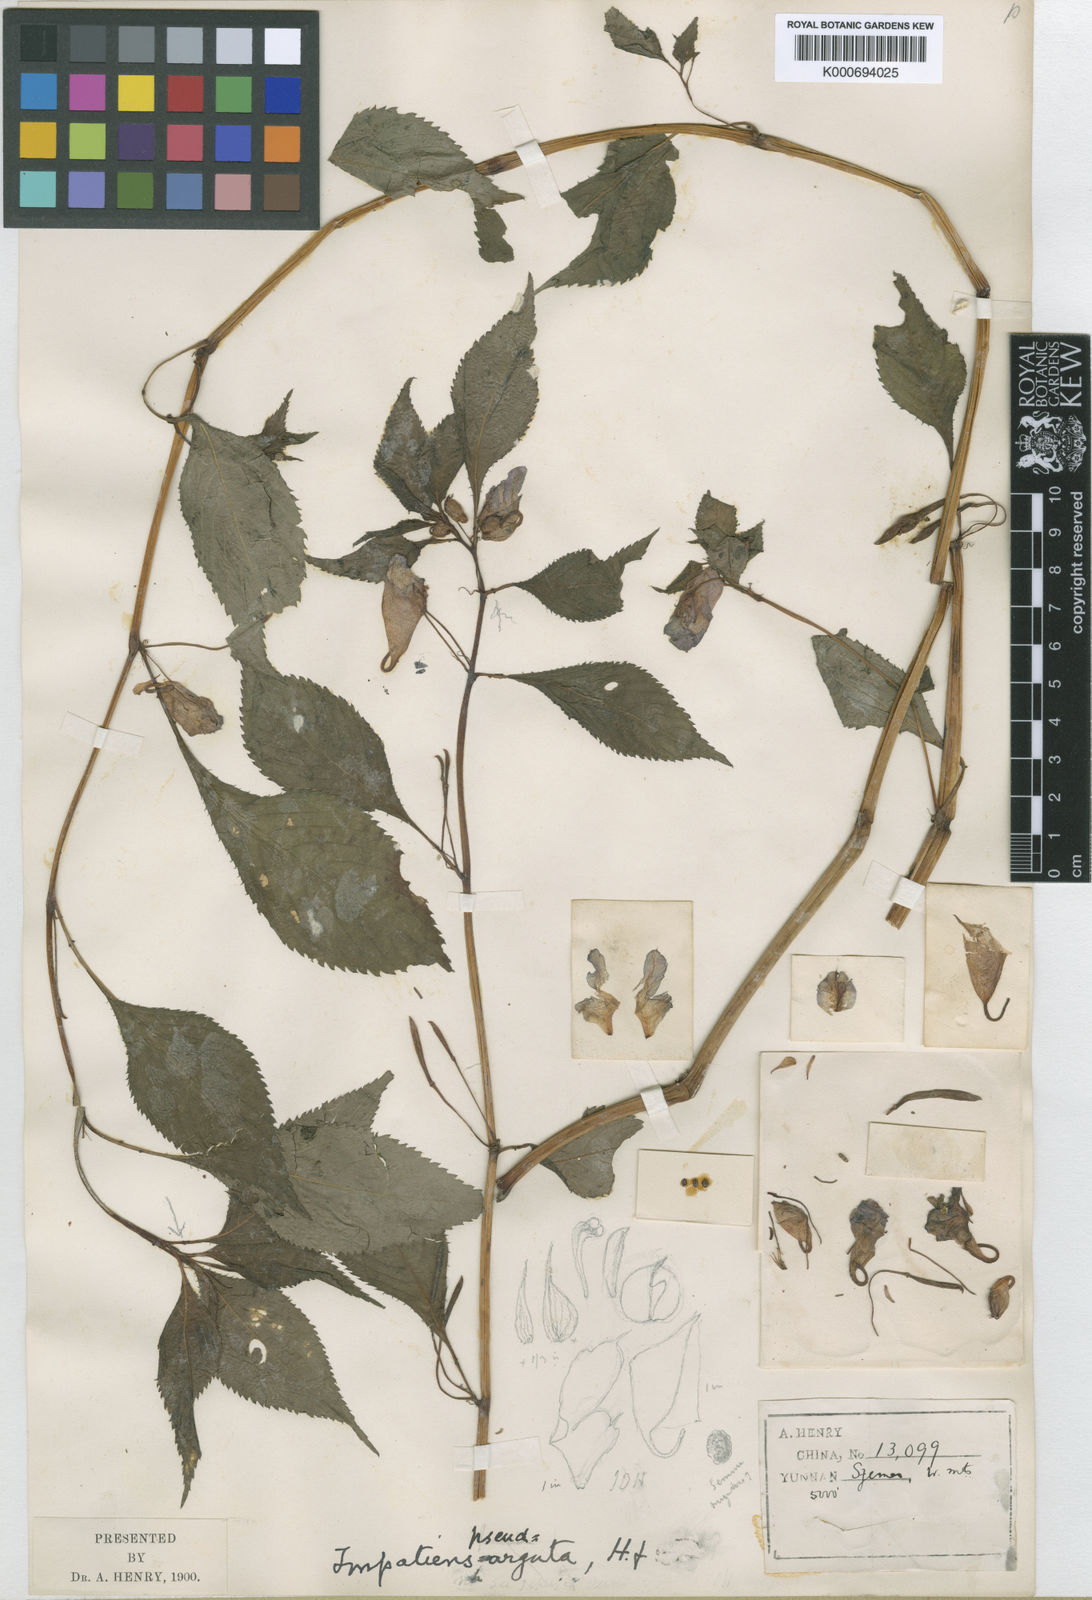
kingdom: Plantae
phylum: Tracheophyta
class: Magnoliopsida
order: Ericales
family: Balsaminaceae
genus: Impatiens
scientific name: Impatiens
